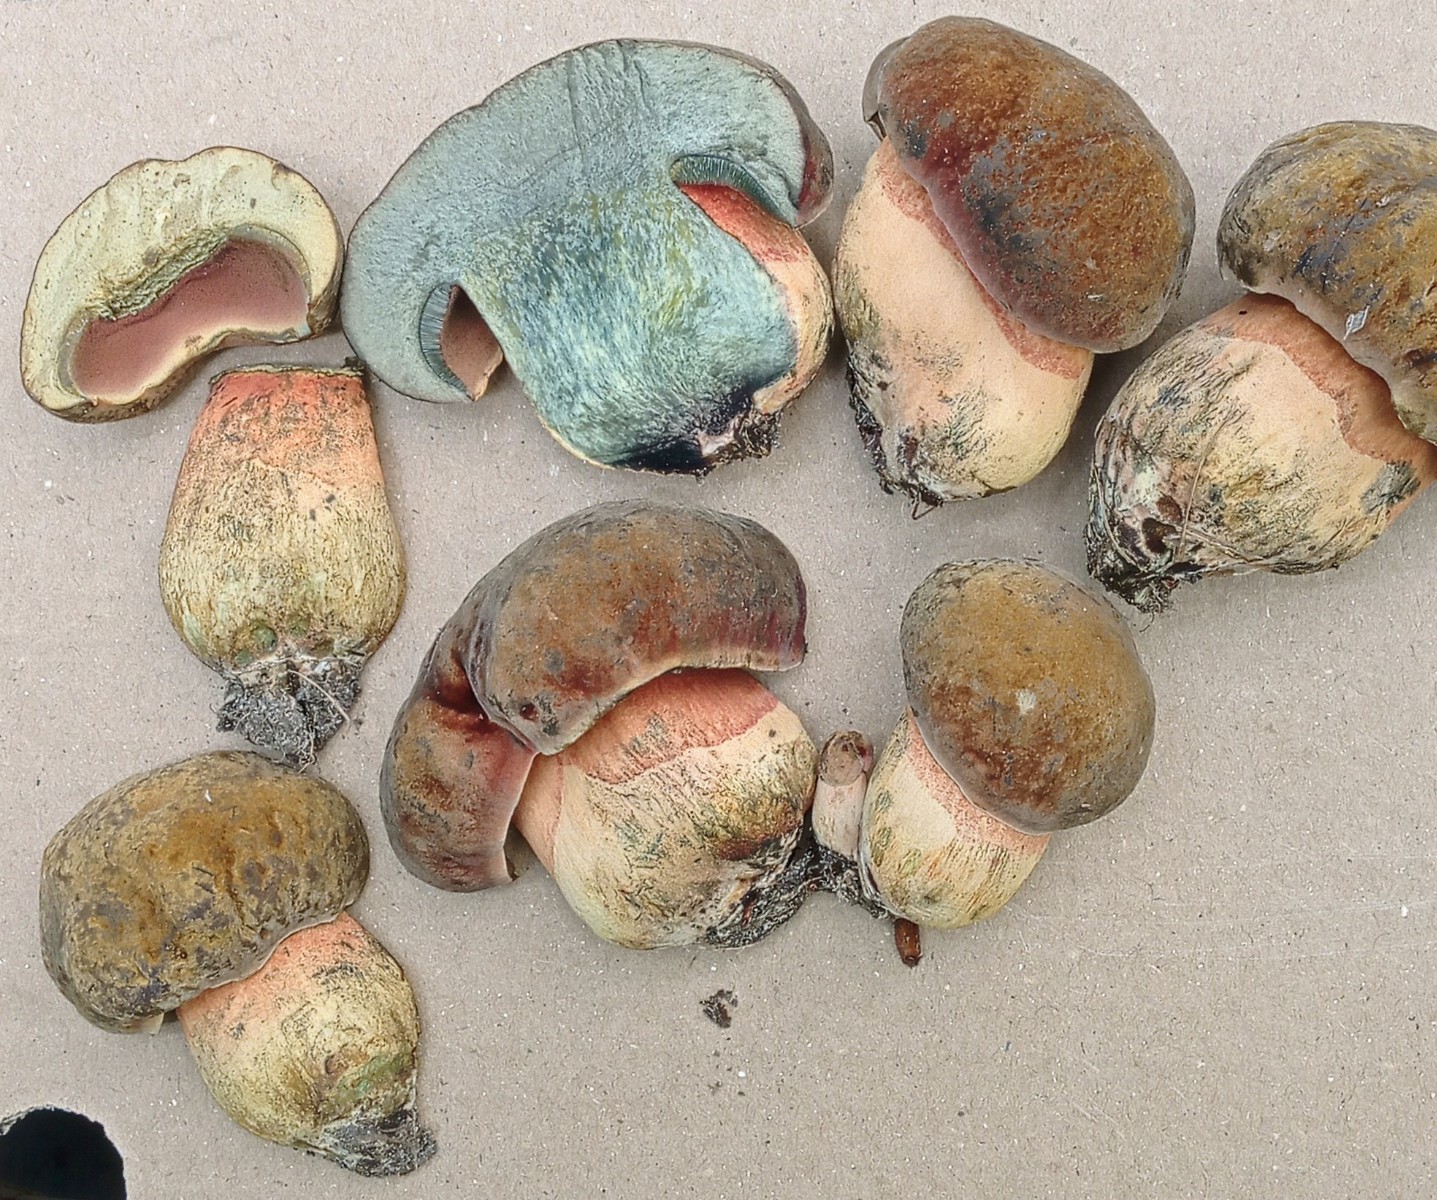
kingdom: Fungi
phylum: Basidiomycota
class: Agaricomycetes
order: Boletales
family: Boletaceae
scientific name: Boletaceae
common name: rørhatfamilien
